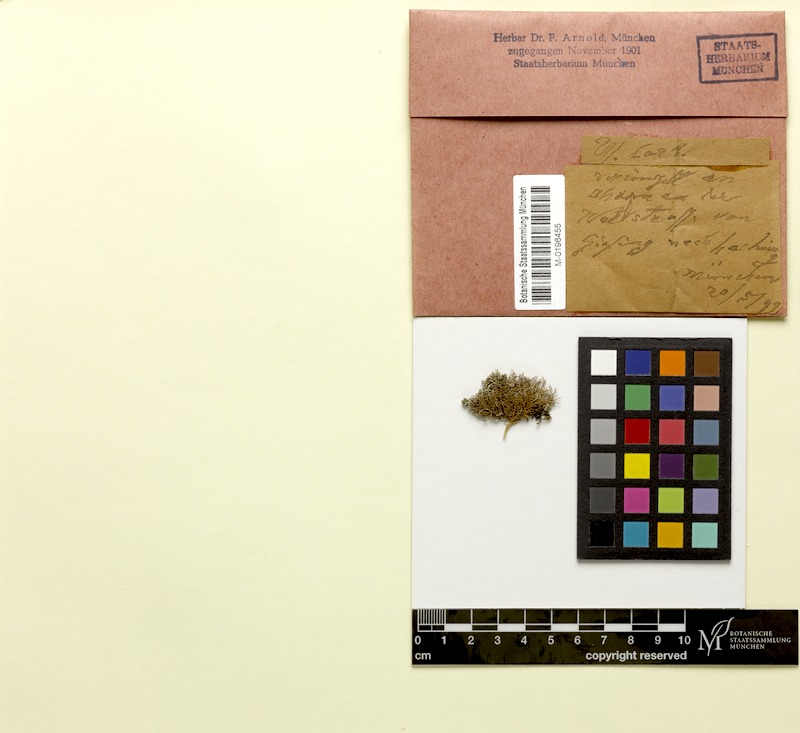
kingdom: Fungi
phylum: Ascomycota
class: Lecanoromycetes
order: Lecanorales
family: Parmeliaceae
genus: Usnea
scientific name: Usnea barbata
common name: Old man's beard lichen
